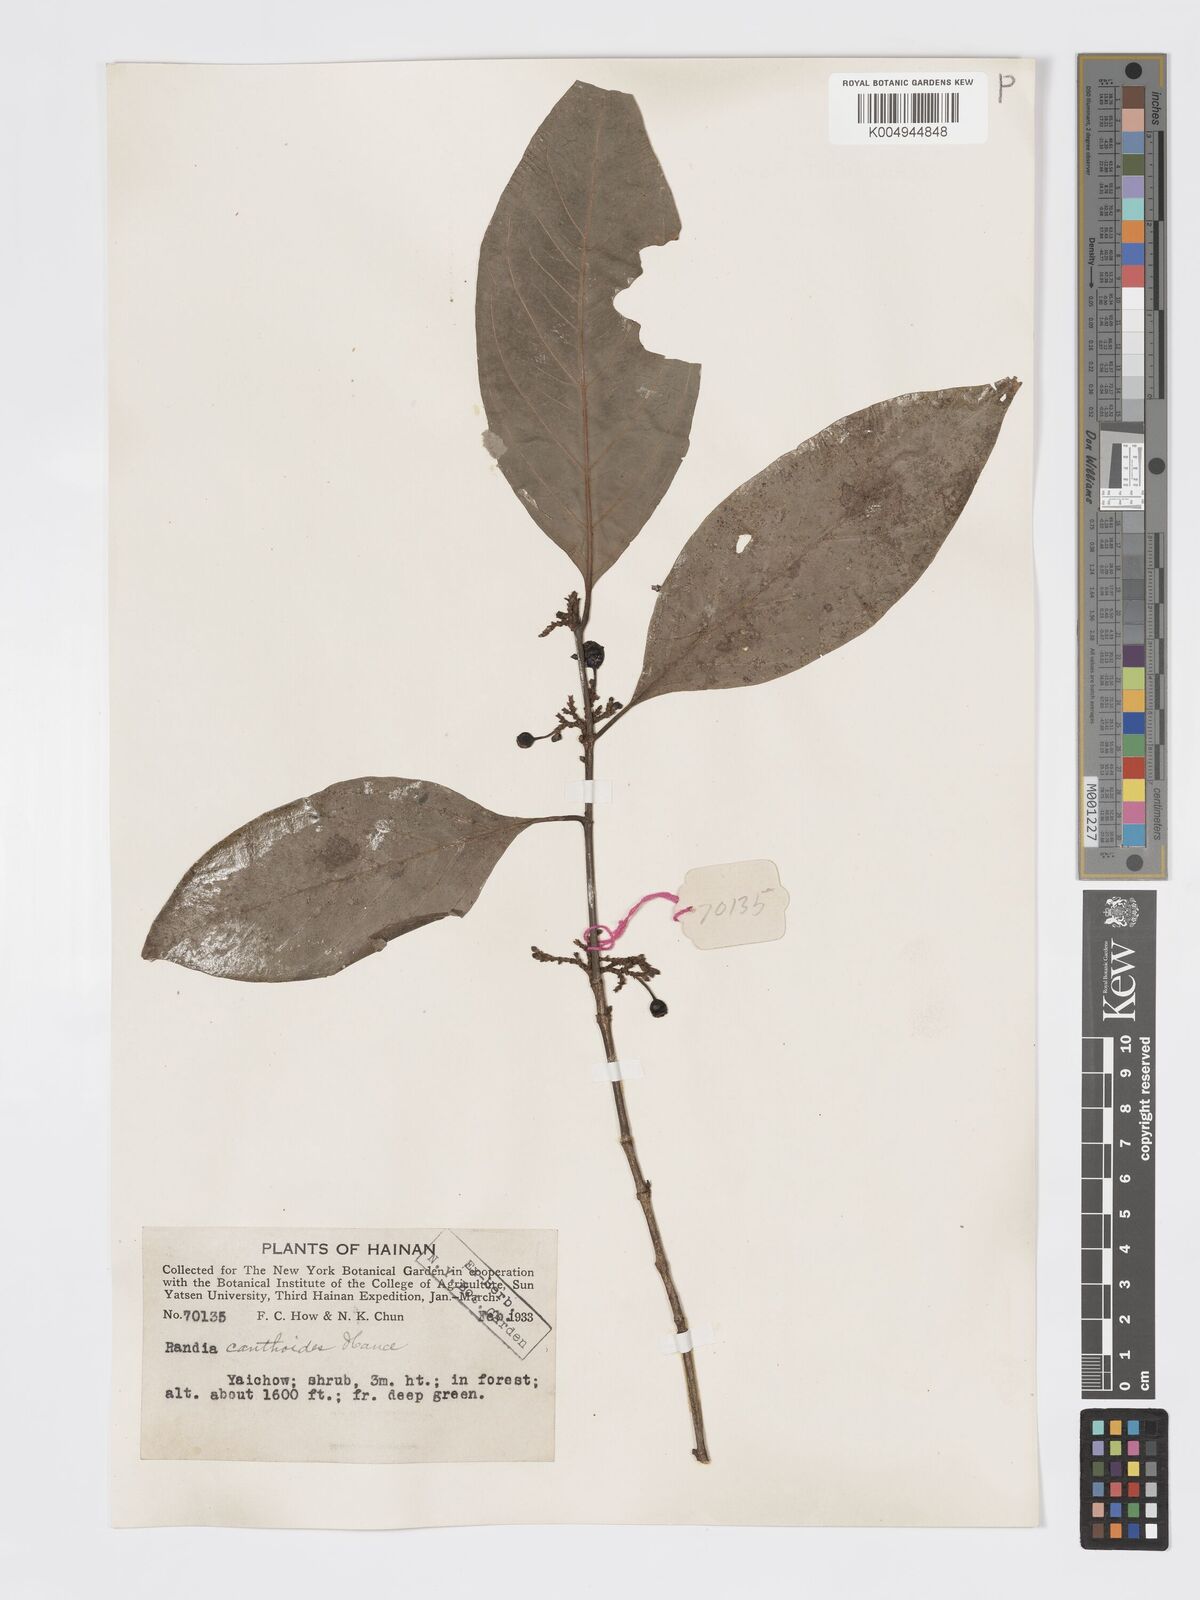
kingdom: Plantae
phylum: Tracheophyta
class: Magnoliopsida
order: Gentianales
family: Rubiaceae
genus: Aidia
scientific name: Aidia canthioides
